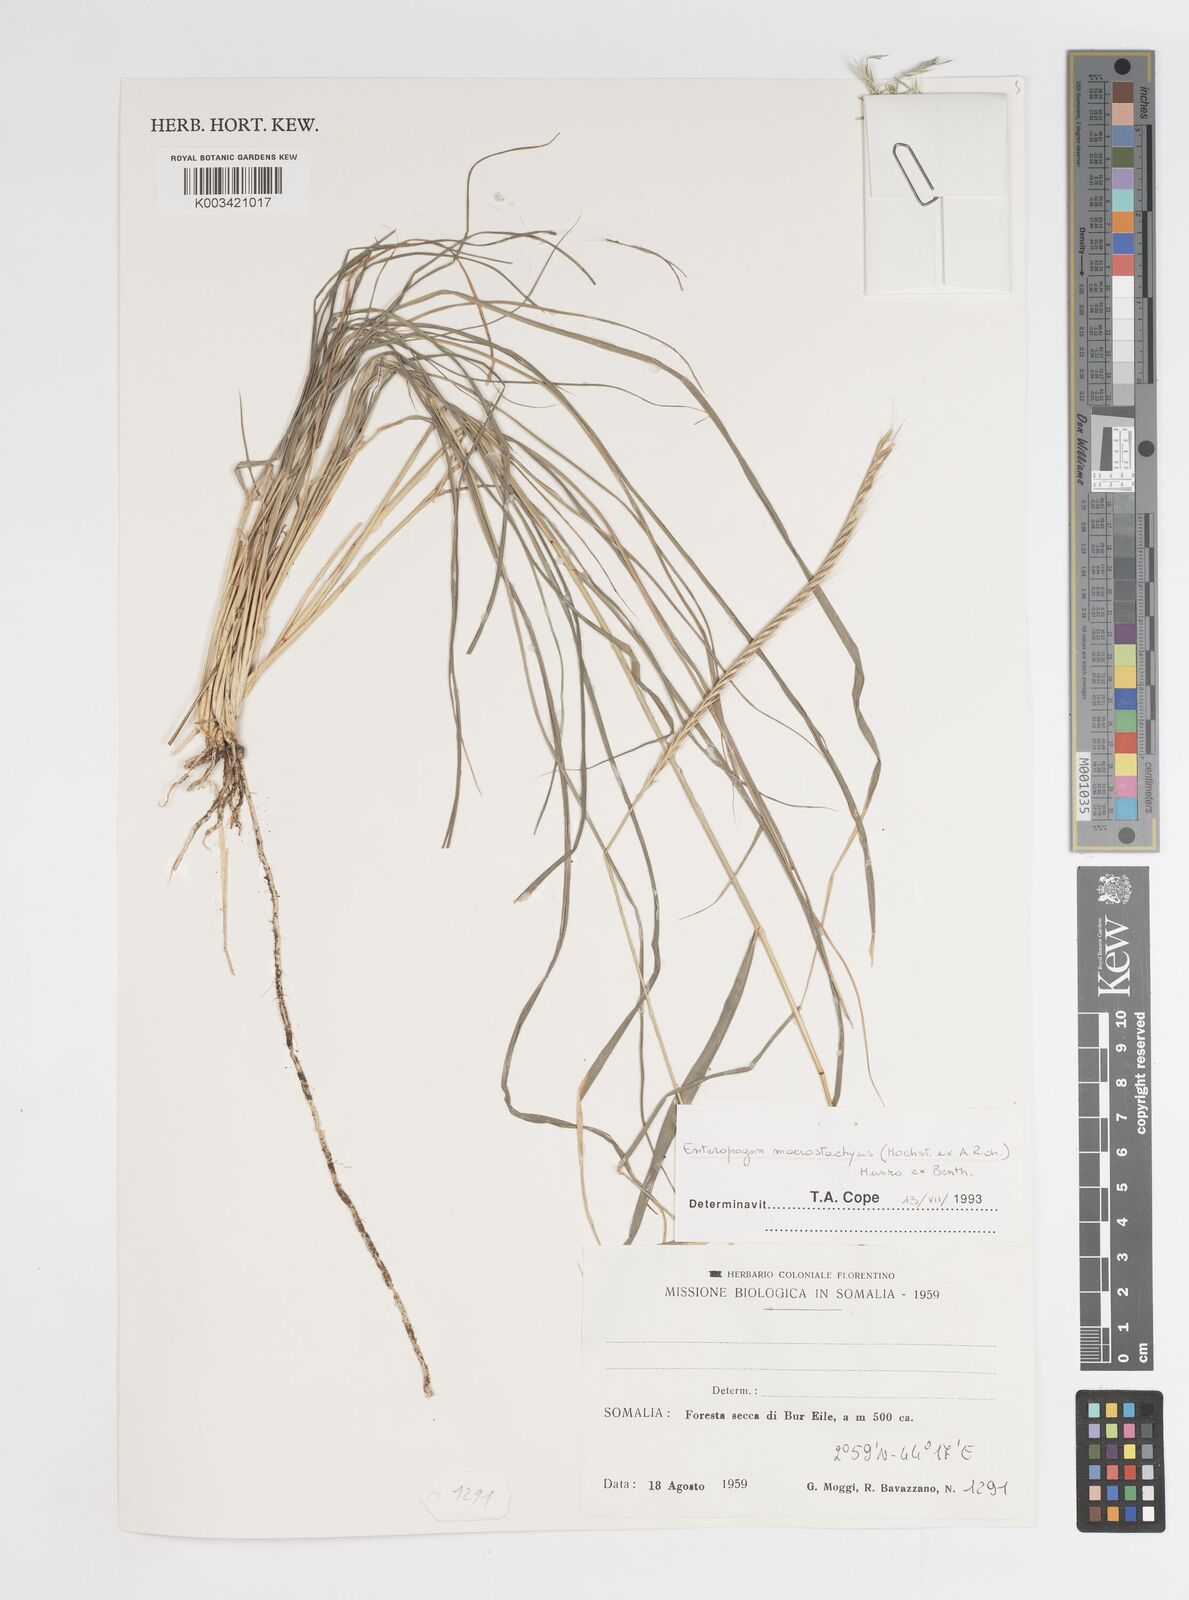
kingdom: Plantae
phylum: Tracheophyta
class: Liliopsida
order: Poales
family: Poaceae
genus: Enteropogon
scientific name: Enteropogon macrostachyus
